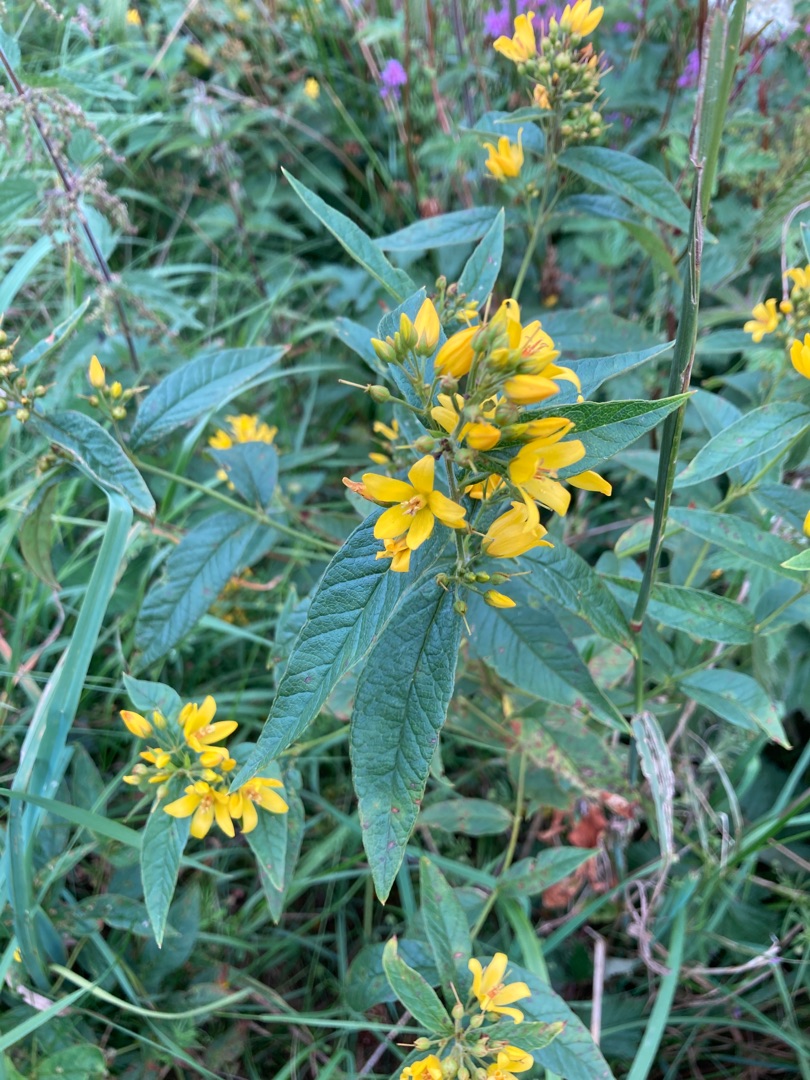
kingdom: Plantae
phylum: Tracheophyta
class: Magnoliopsida
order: Ericales
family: Primulaceae
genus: Lysimachia
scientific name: Lysimachia vulgaris
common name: Almindelig fredløs
